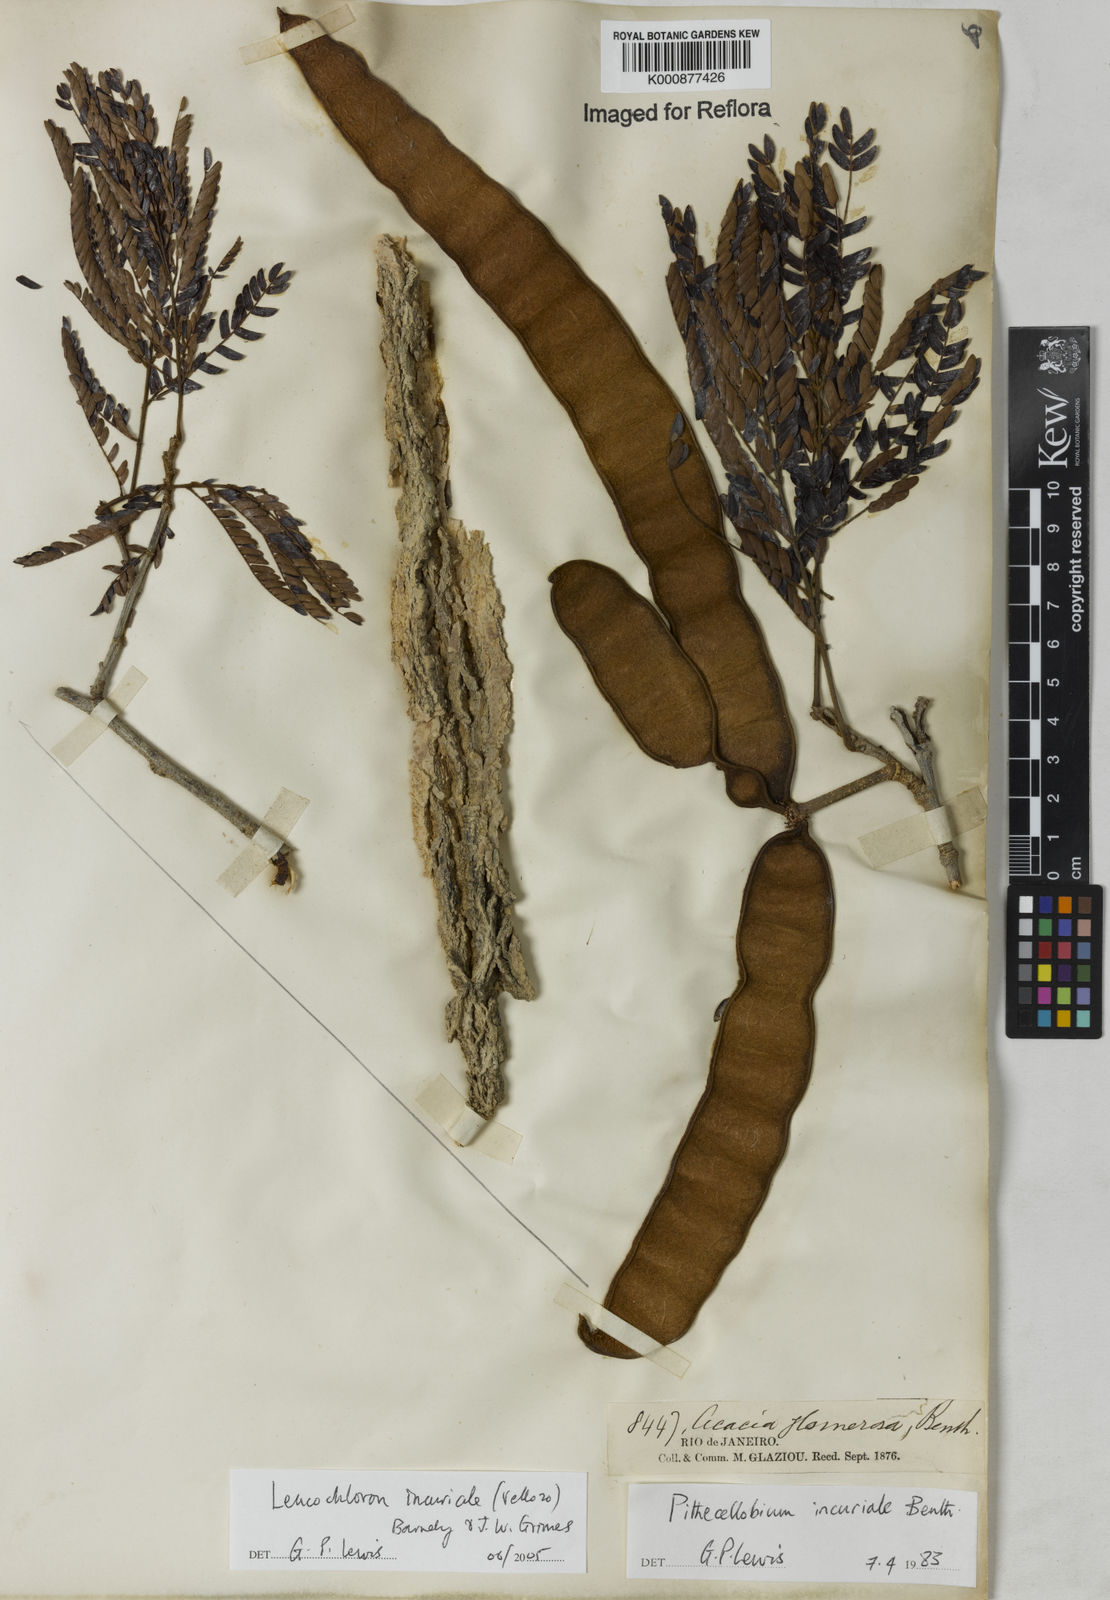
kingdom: Plantae
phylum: Tracheophyta
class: Magnoliopsida
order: Fabales
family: Fabaceae
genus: Leucochloron
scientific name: Leucochloron incuriale
